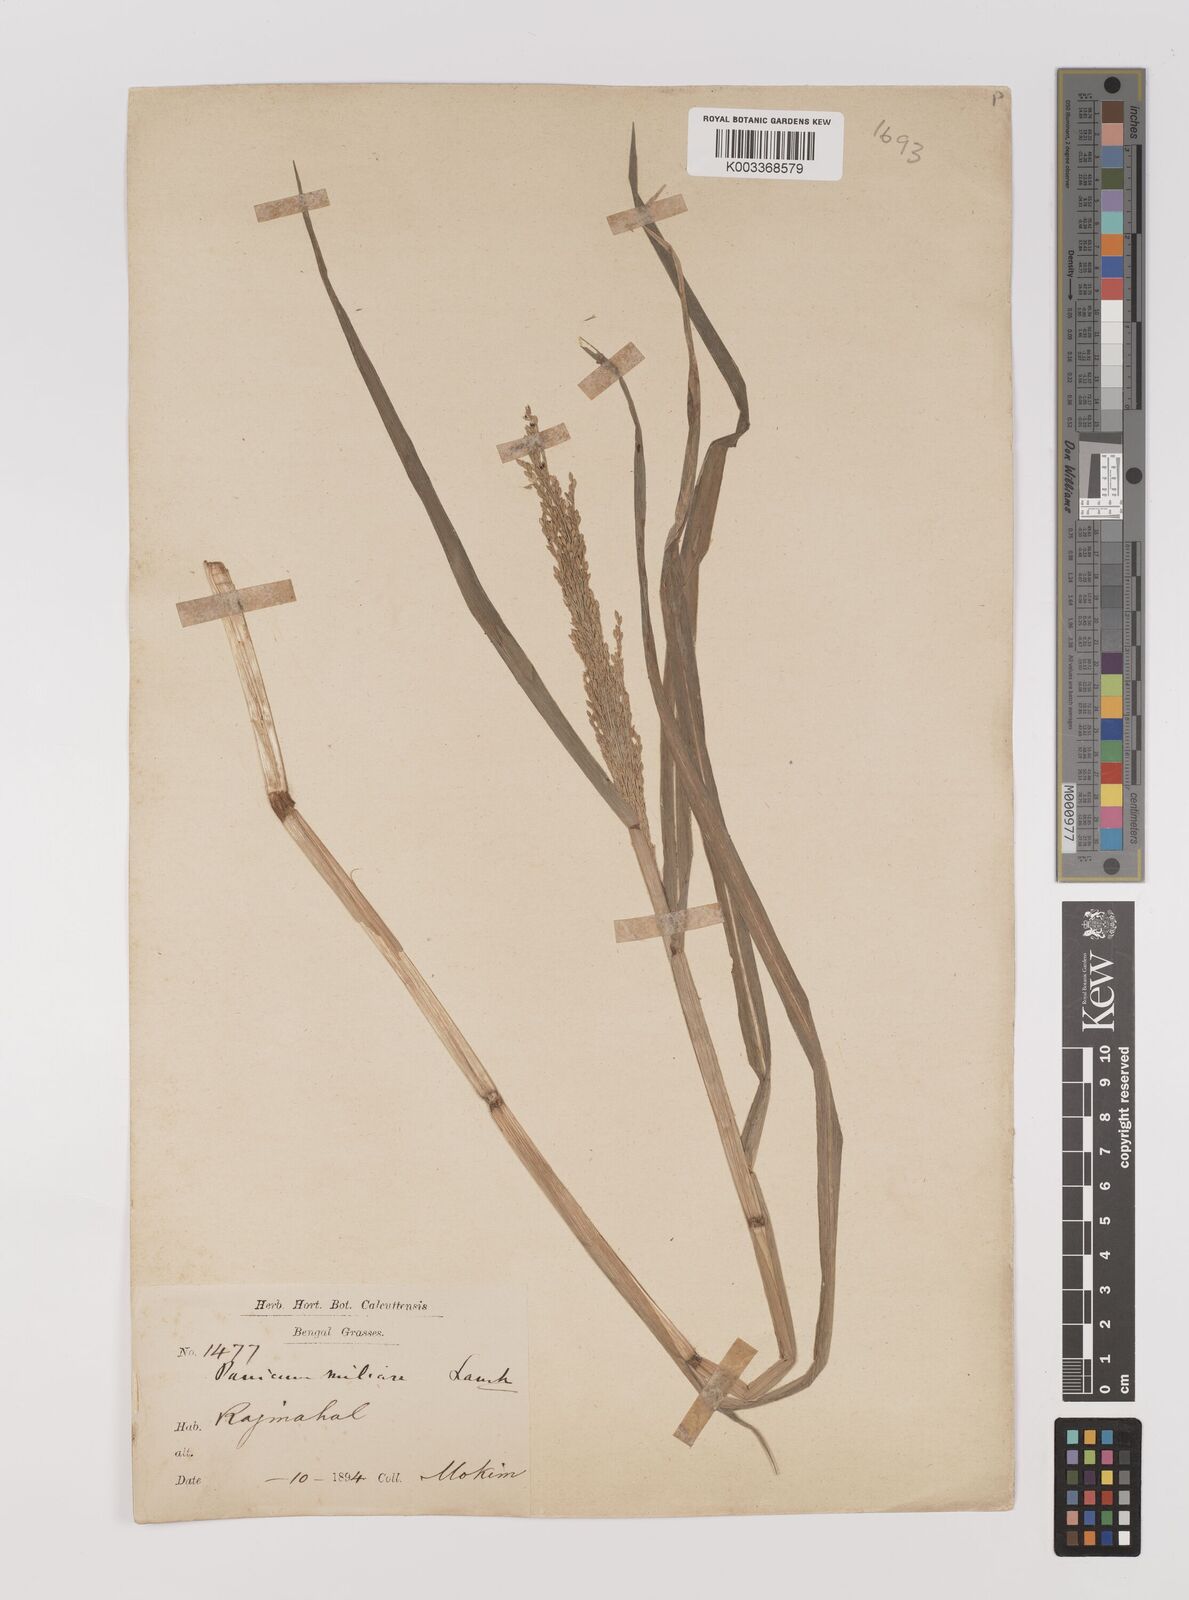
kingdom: Plantae
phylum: Tracheophyta
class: Liliopsida
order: Poales
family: Poaceae
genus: Panicum
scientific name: Panicum sumatrense
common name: Little millet
